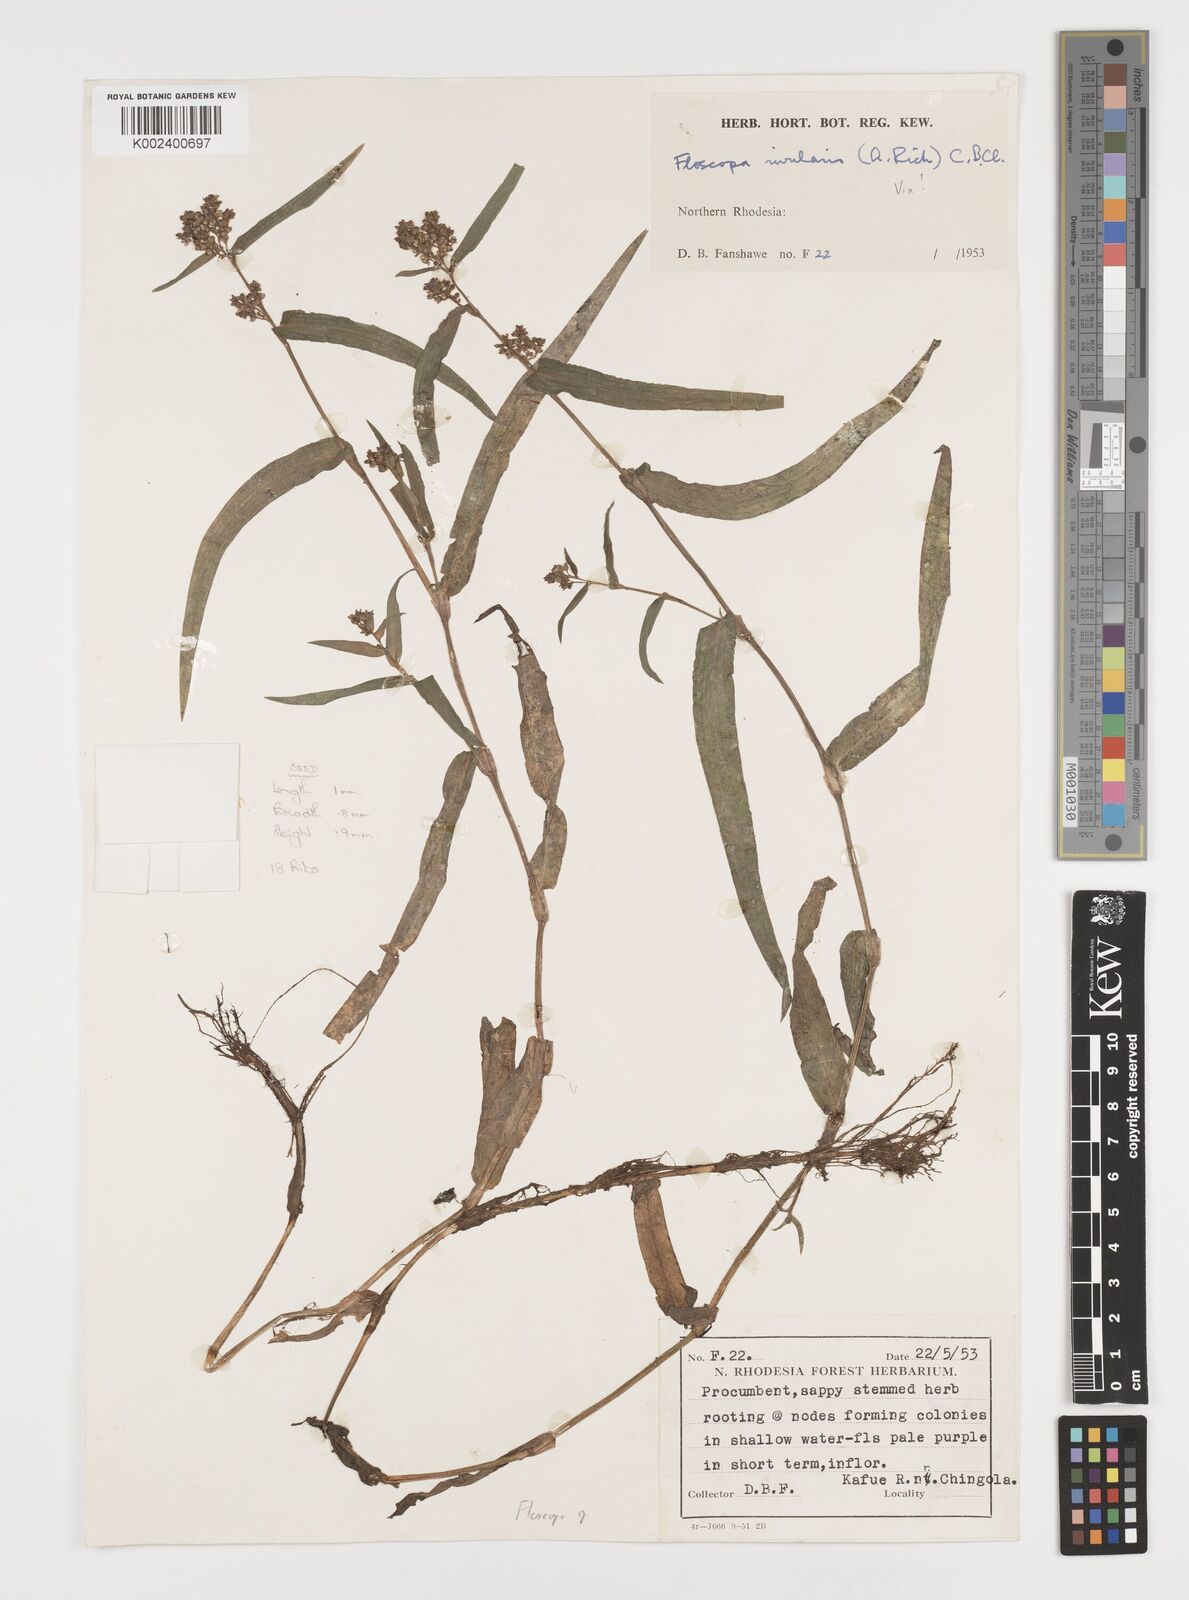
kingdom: Plantae
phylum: Tracheophyta
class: Liliopsida
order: Commelinales
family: Commelinaceae
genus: Floscopa
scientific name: Floscopa
